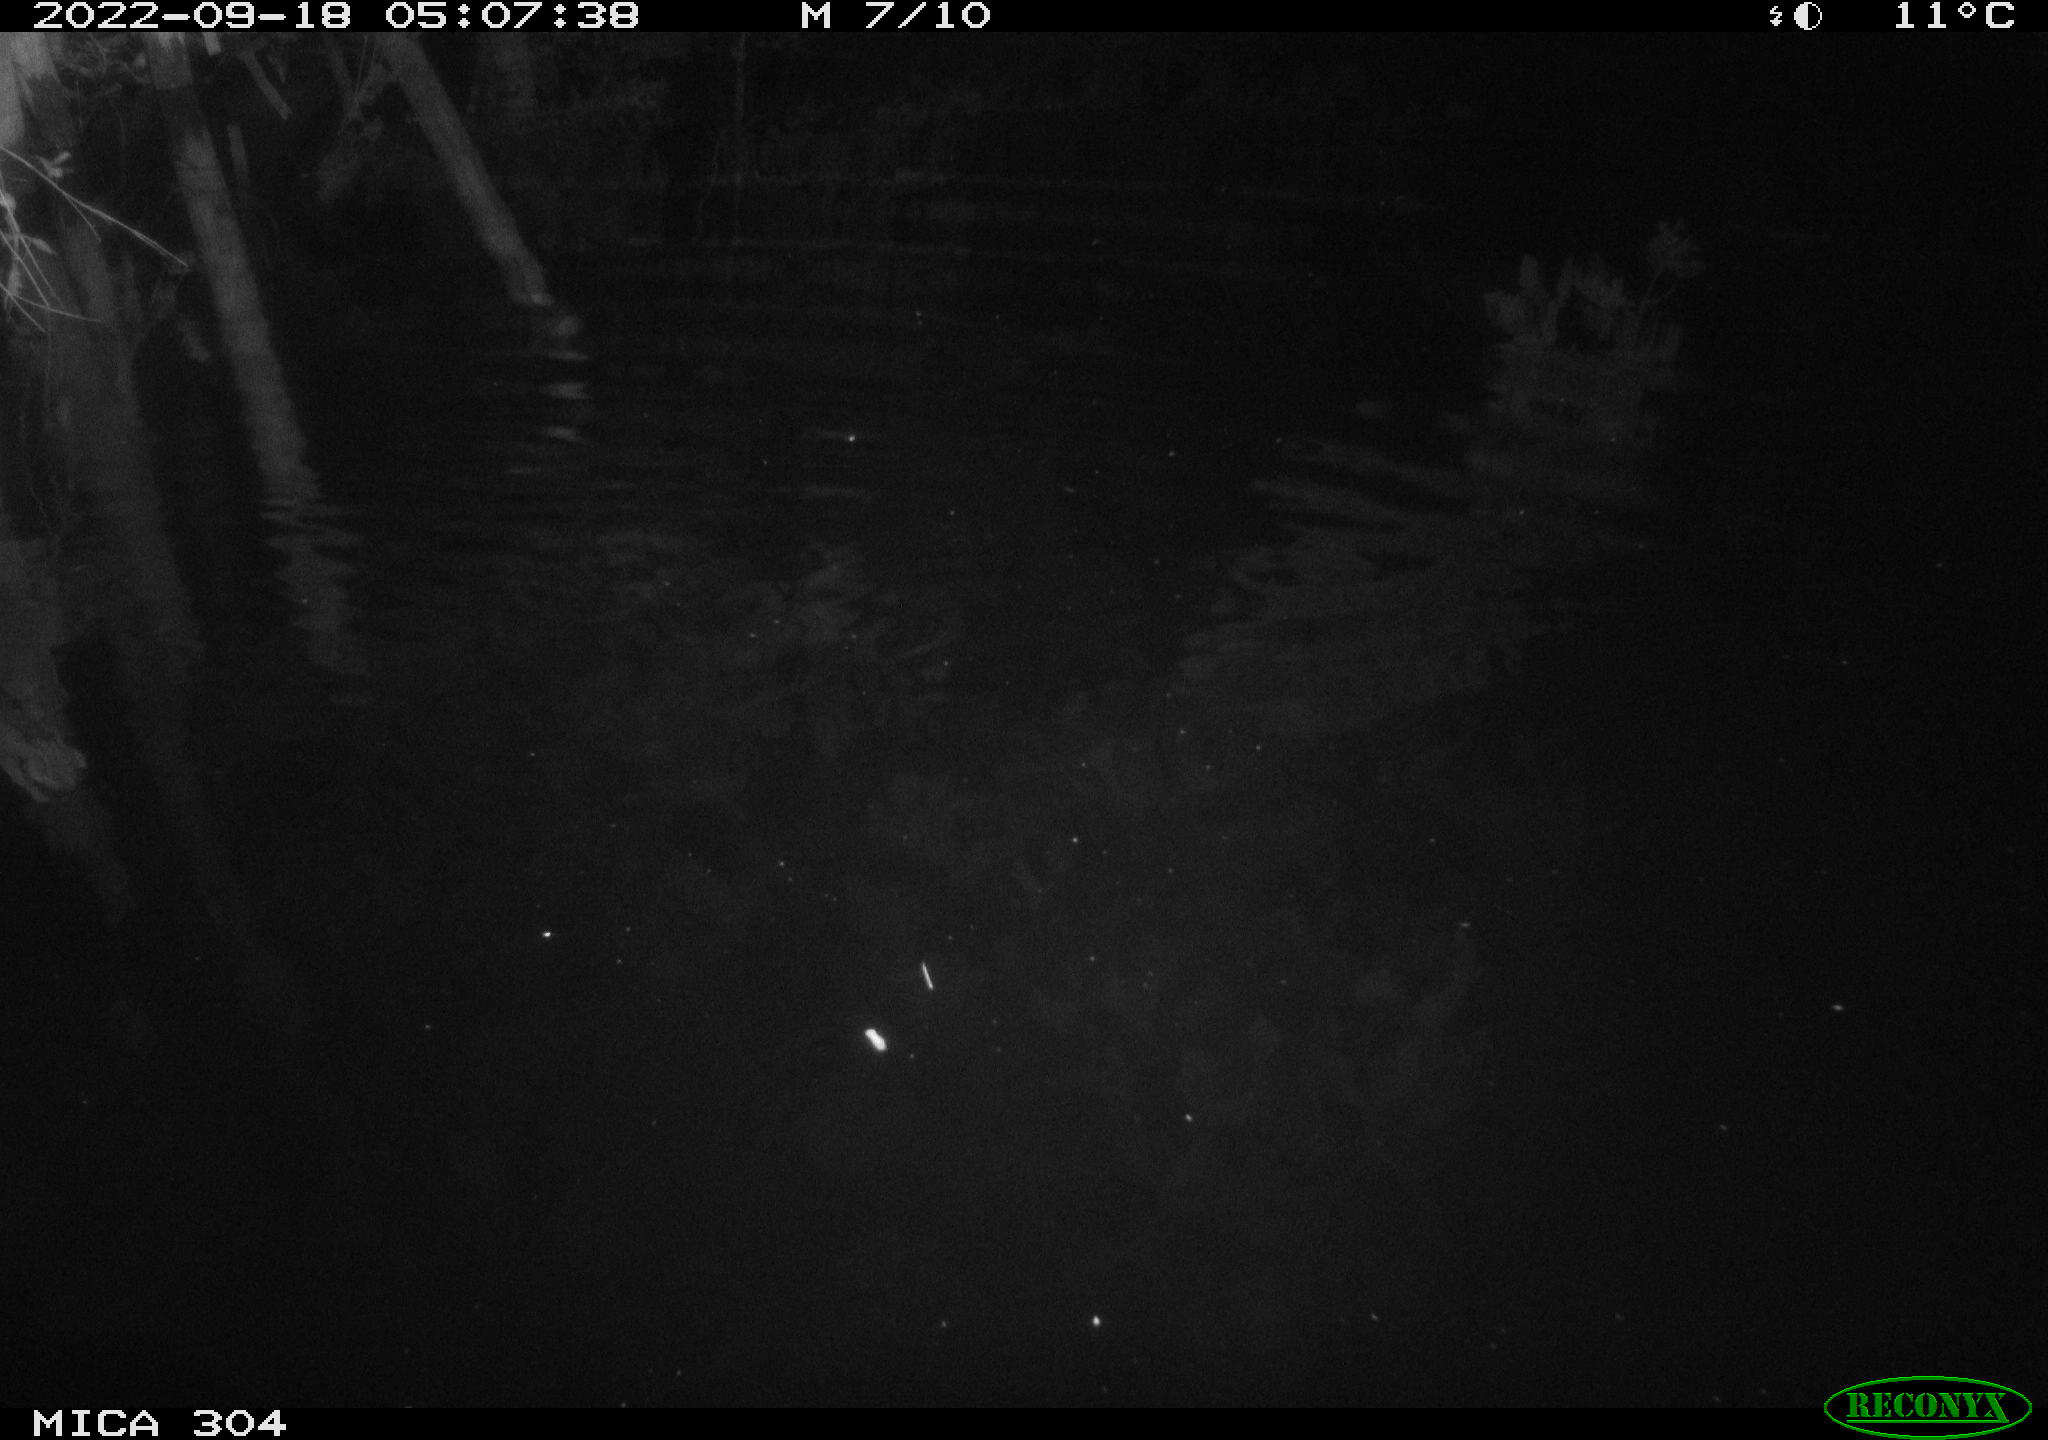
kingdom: Animalia
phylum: Chordata
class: Mammalia
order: Rodentia
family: Muridae
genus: Rattus
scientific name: Rattus norvegicus
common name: Brown rat
